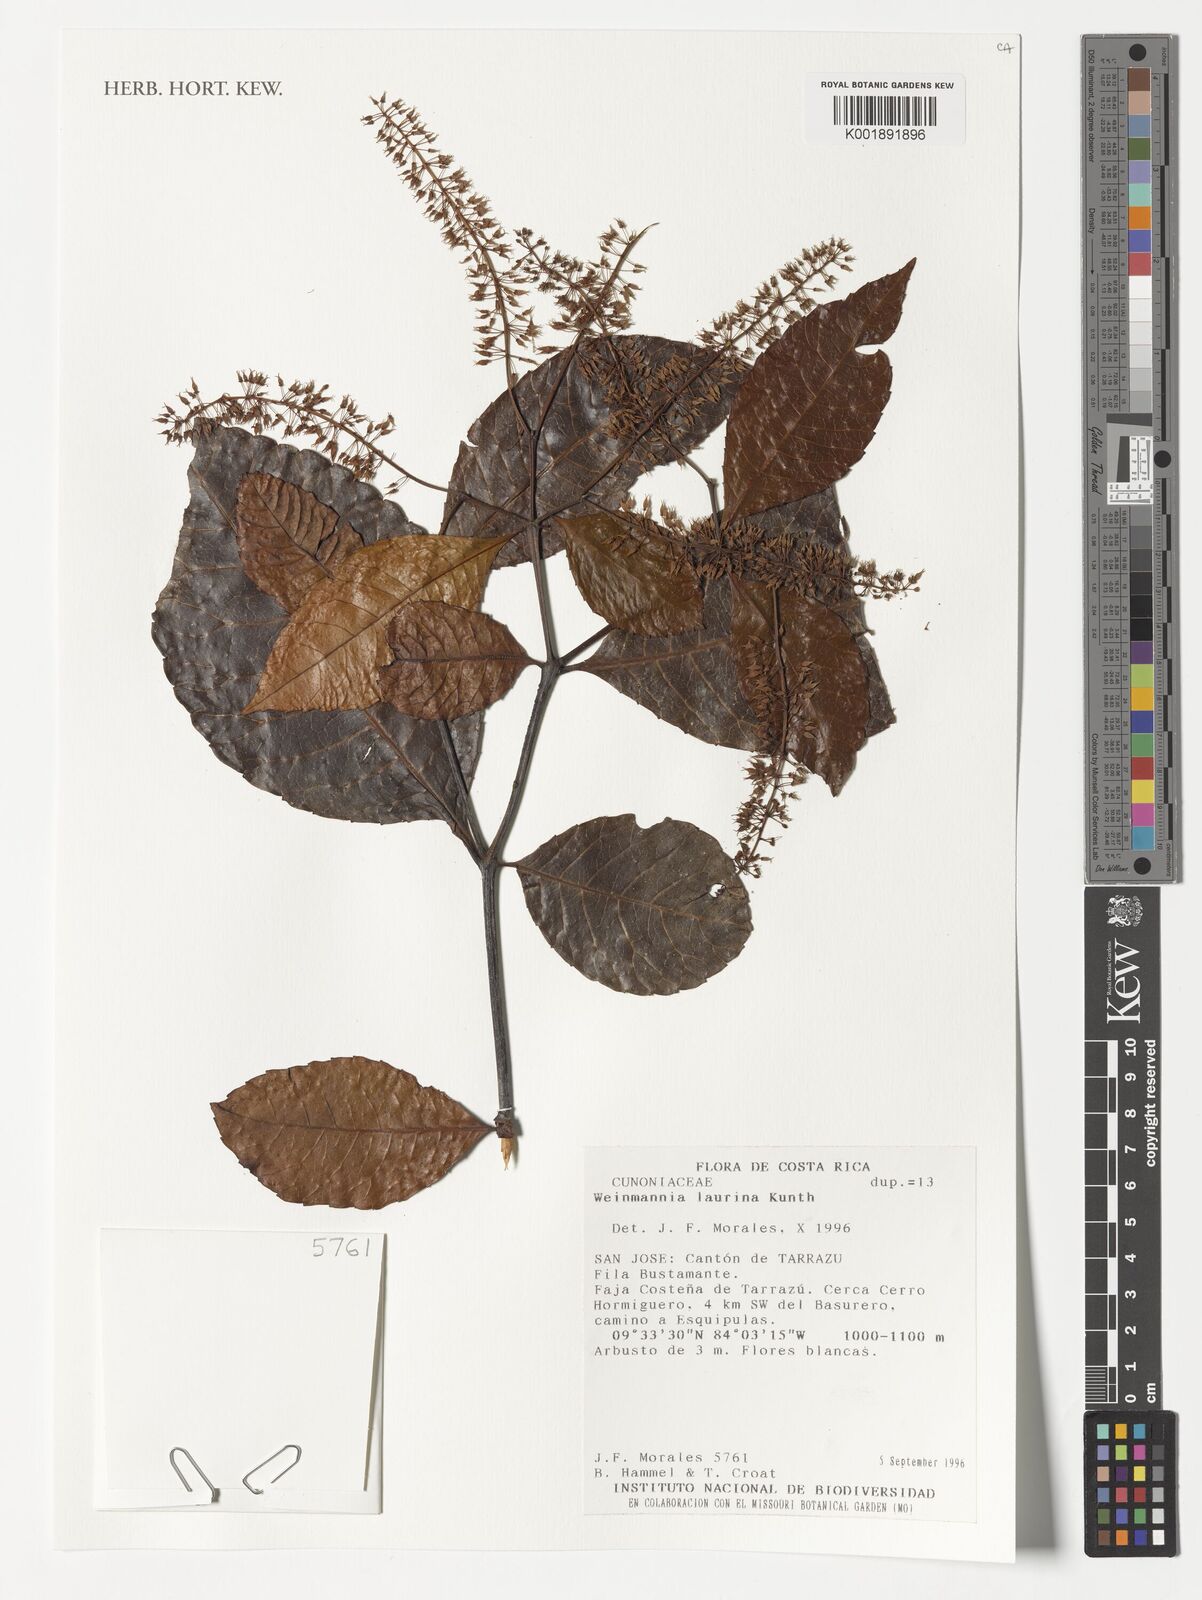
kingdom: Plantae
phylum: Tracheophyta
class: Magnoliopsida
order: Oxalidales
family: Cunoniaceae
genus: Weinmannia
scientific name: Weinmannia balbisana
